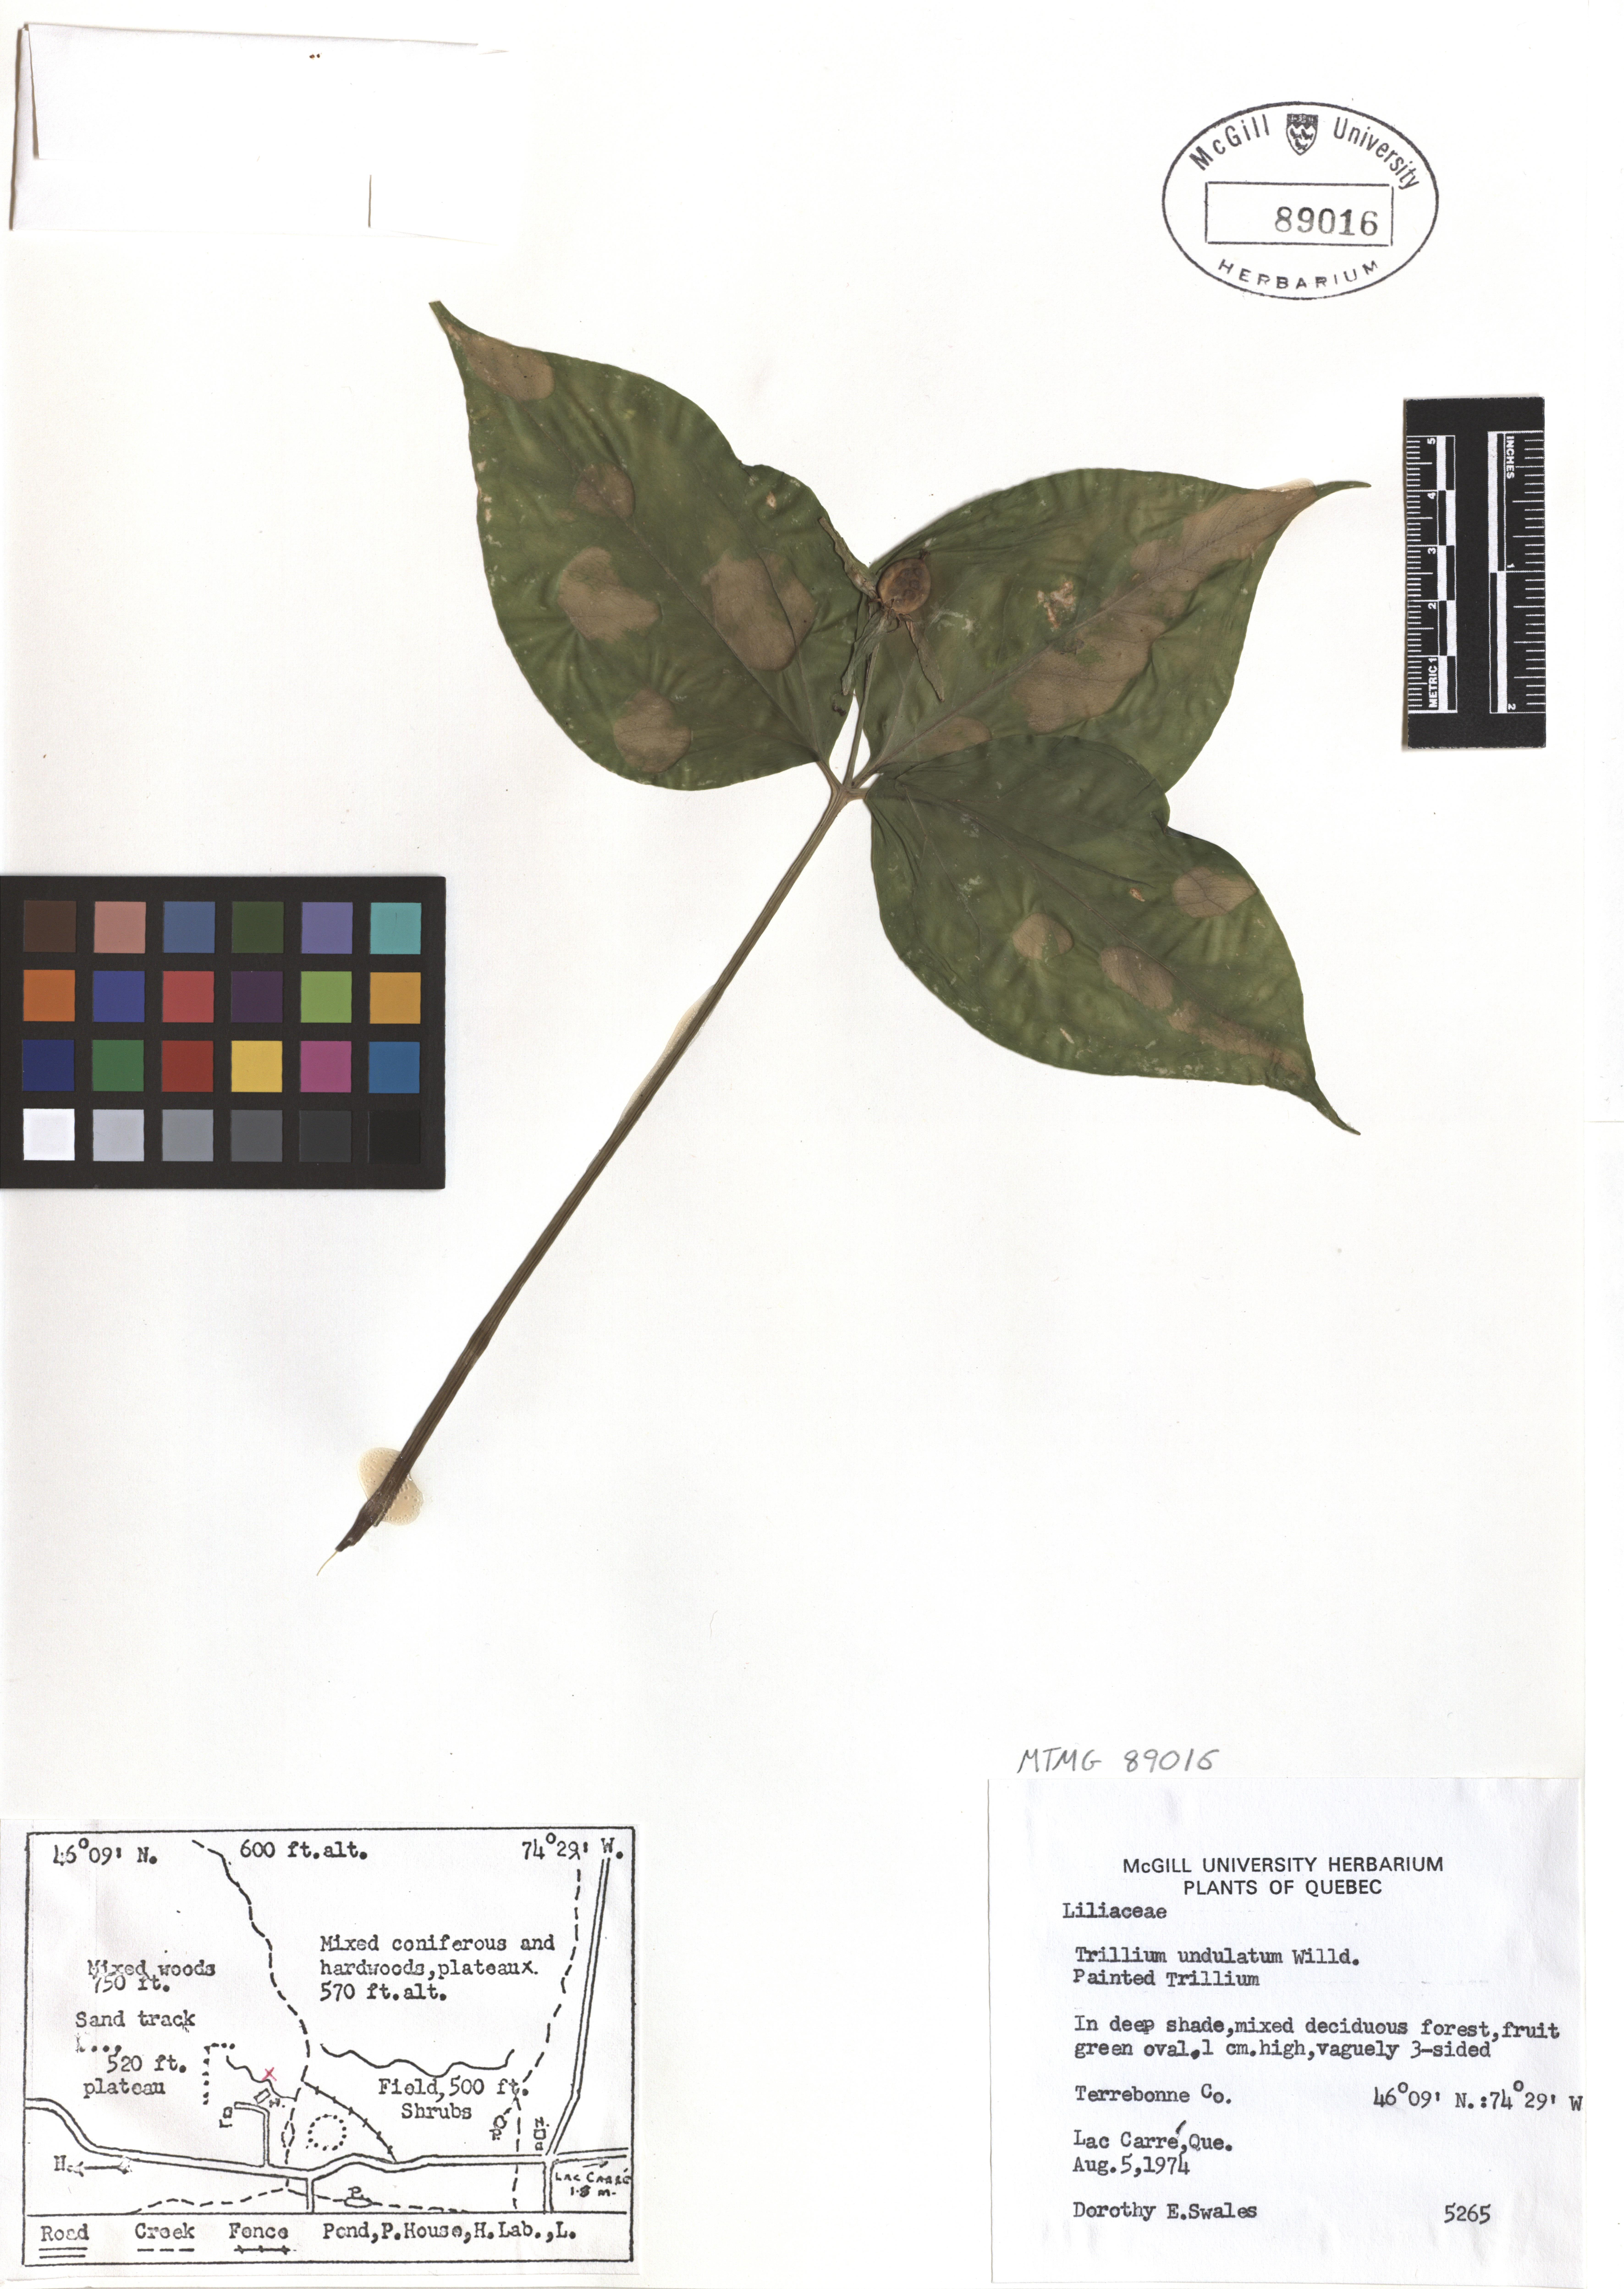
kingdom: Plantae
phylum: Tracheophyta
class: Liliopsida
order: Liliales
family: Melanthiaceae
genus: Trillium
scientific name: Trillium undulatum
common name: Paint trillium
